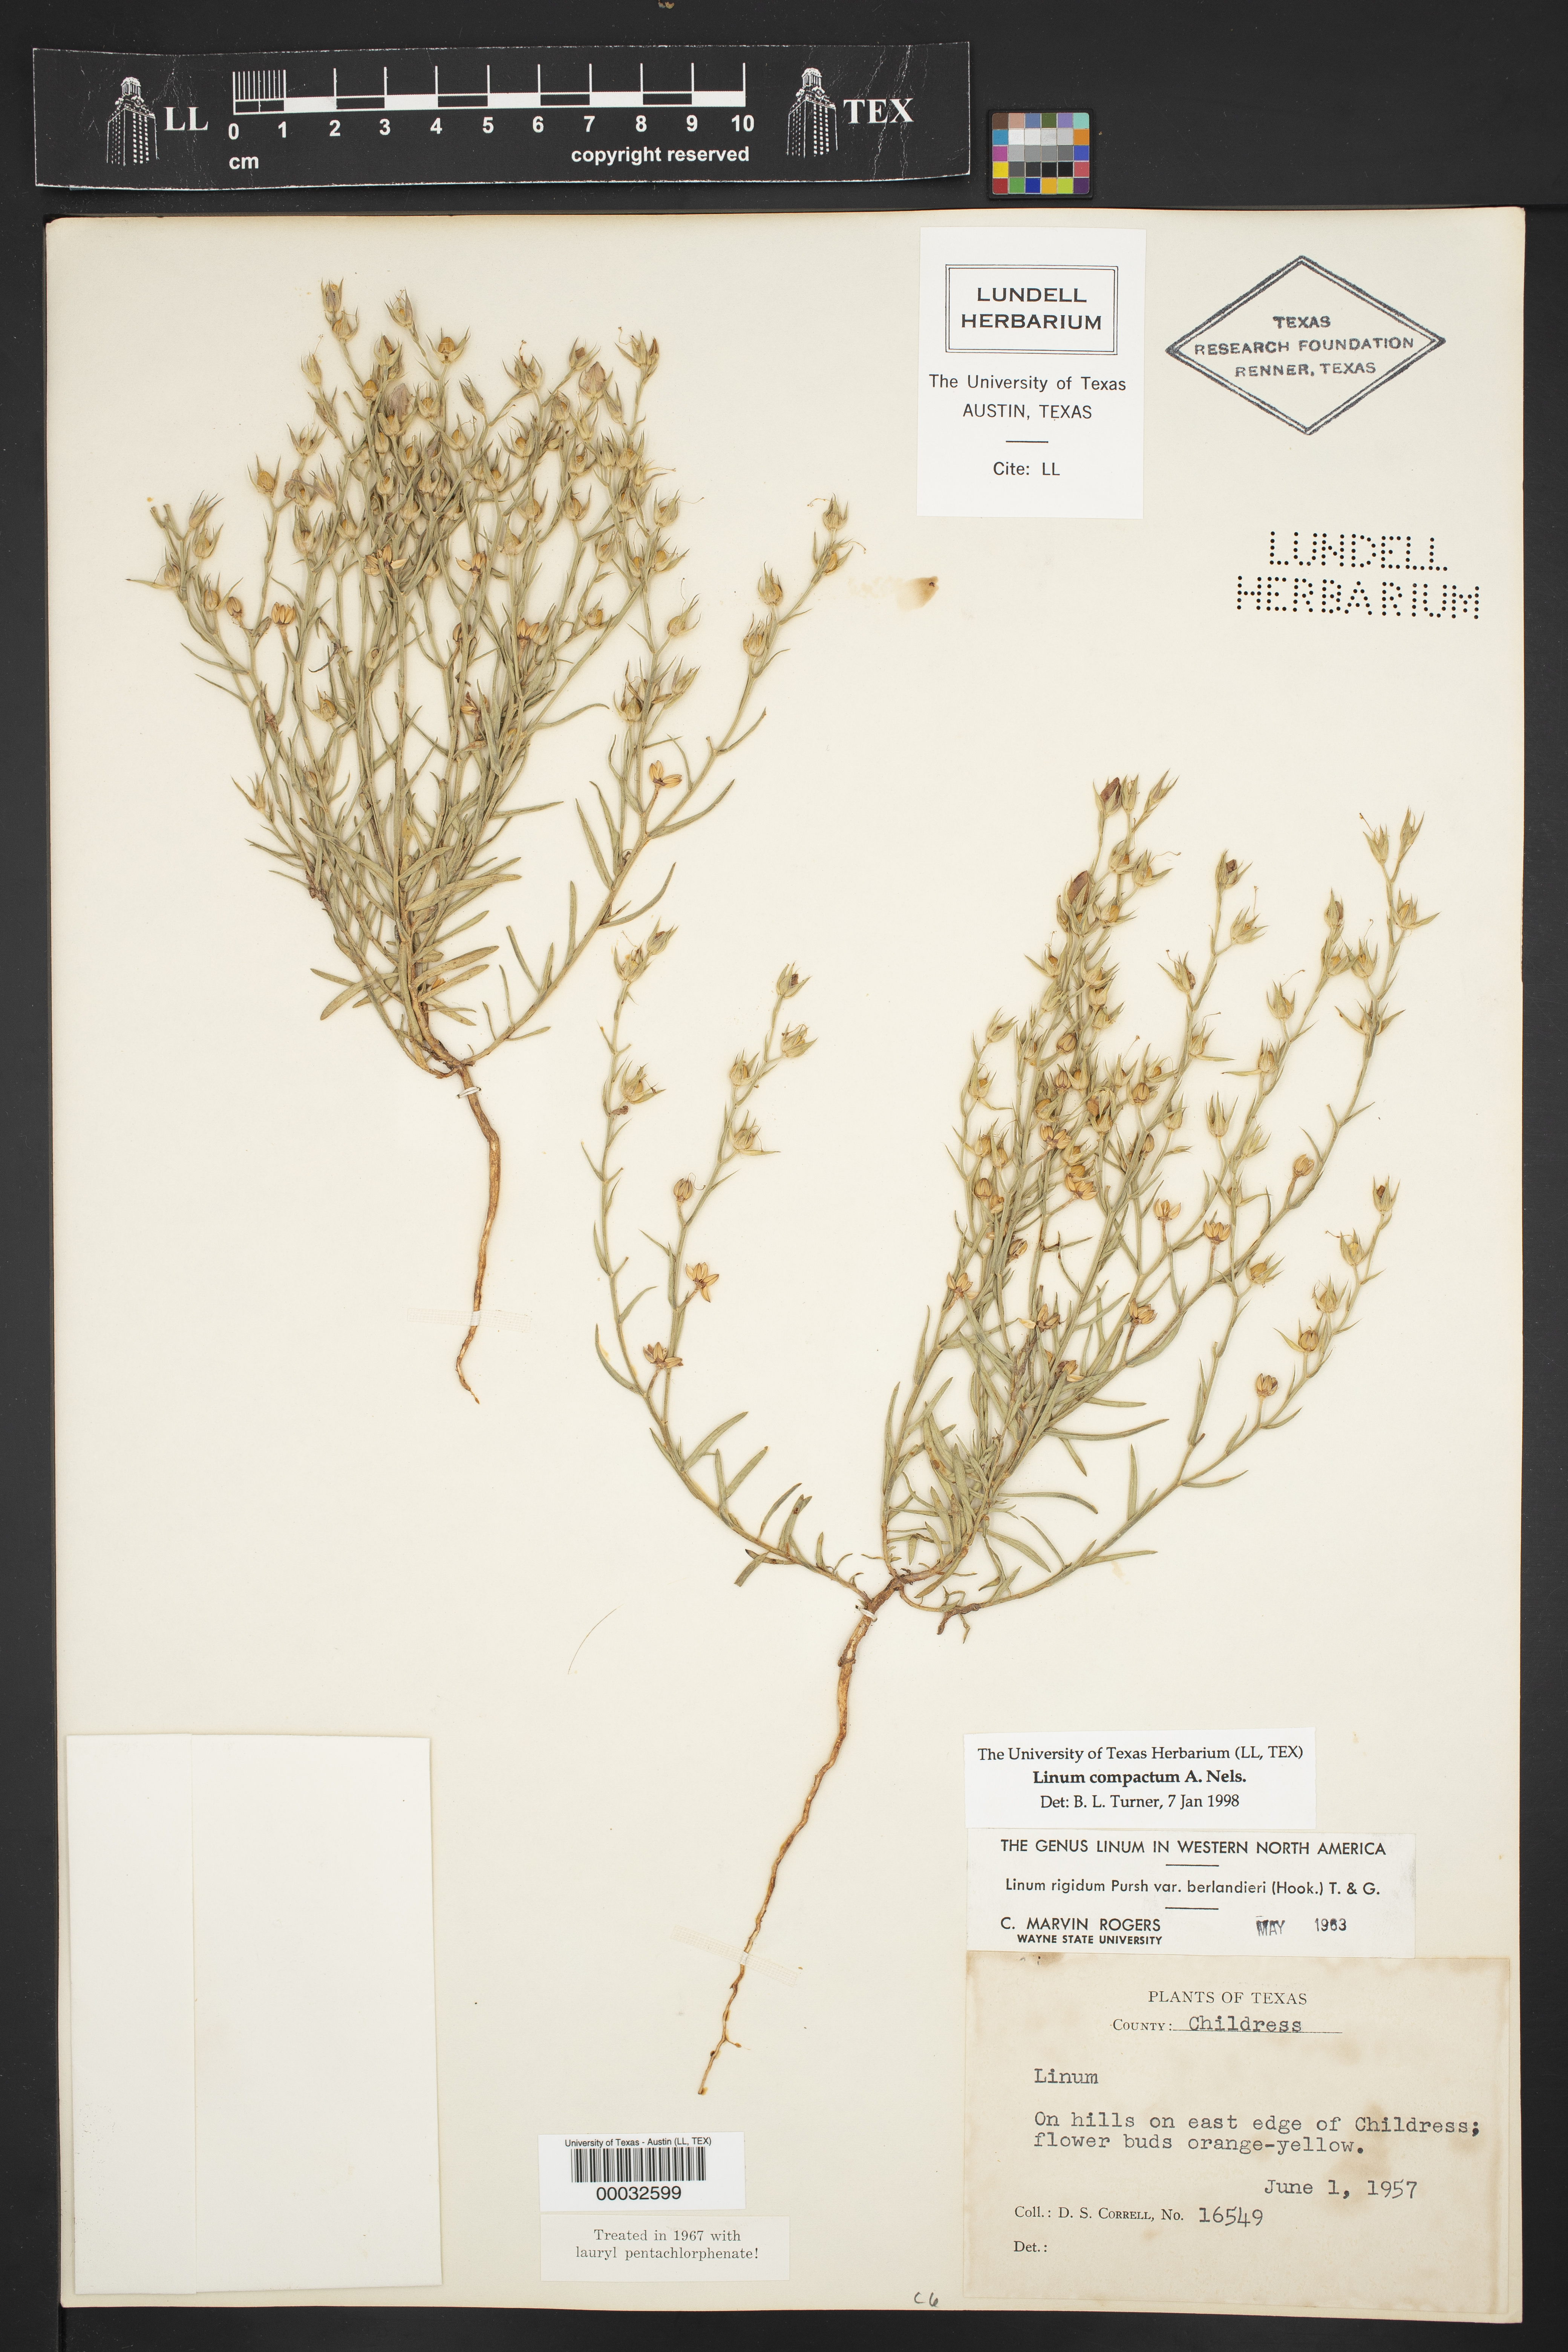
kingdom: Plantae
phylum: Tracheophyta
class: Magnoliopsida
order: Malpighiales
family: Linaceae
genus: Linum
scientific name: Linum compactum
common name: Wyoming flax
